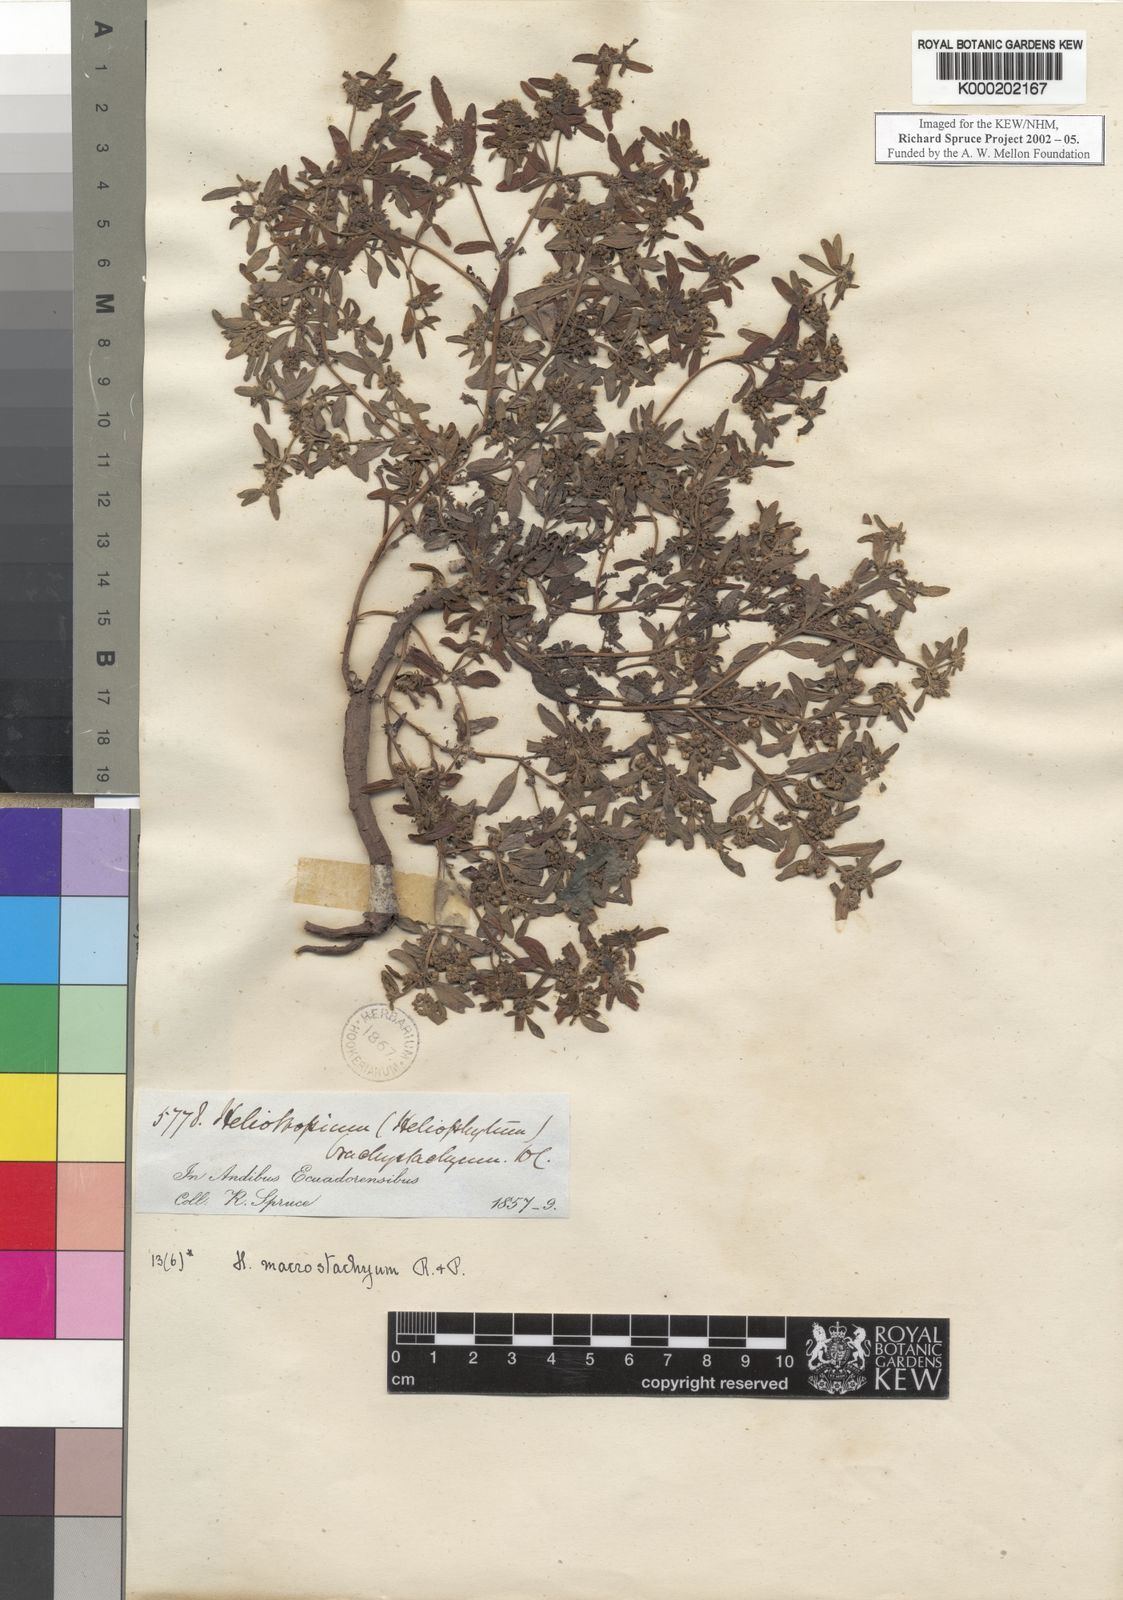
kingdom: Plantae
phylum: Tracheophyta
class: Magnoliopsida
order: Boraginales
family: Heliotropiaceae
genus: Heliotropium
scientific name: Heliotropium macrostachyum
